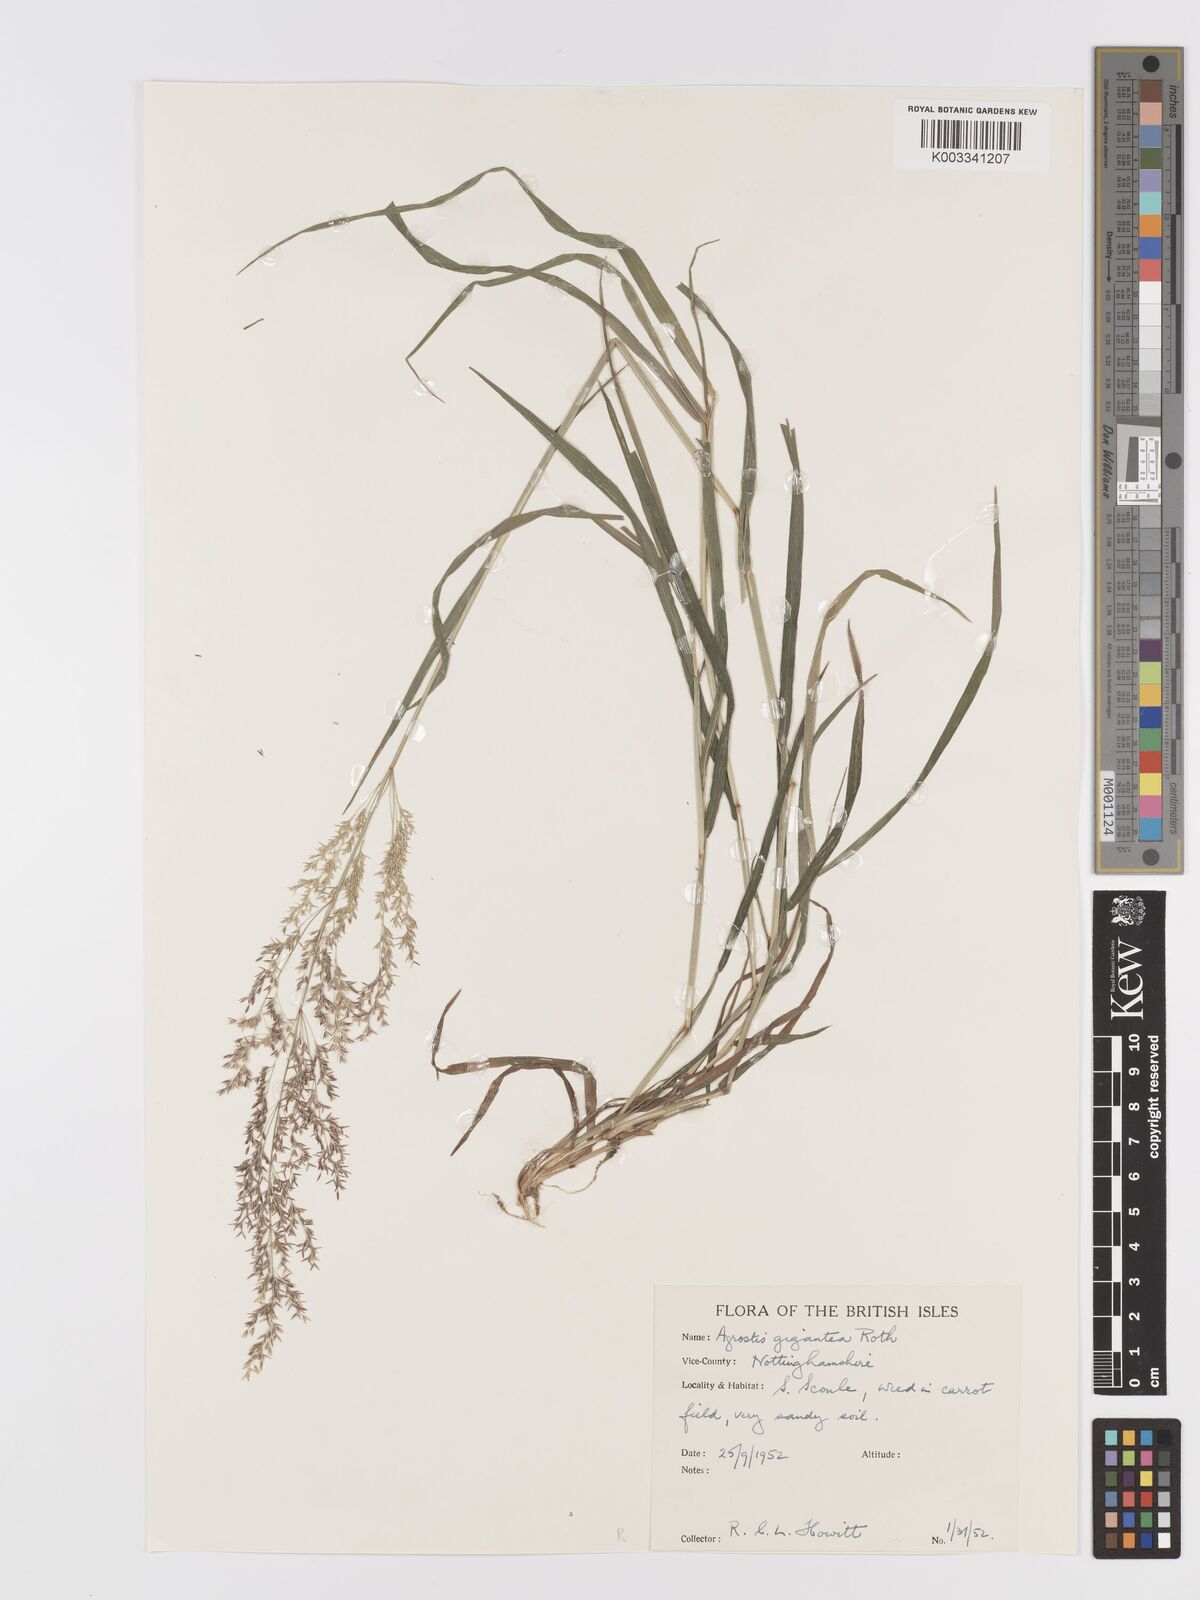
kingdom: Plantae
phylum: Tracheophyta
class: Liliopsida
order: Poales
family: Poaceae
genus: Agrostis
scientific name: Agrostis gigantea
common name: Black bent
